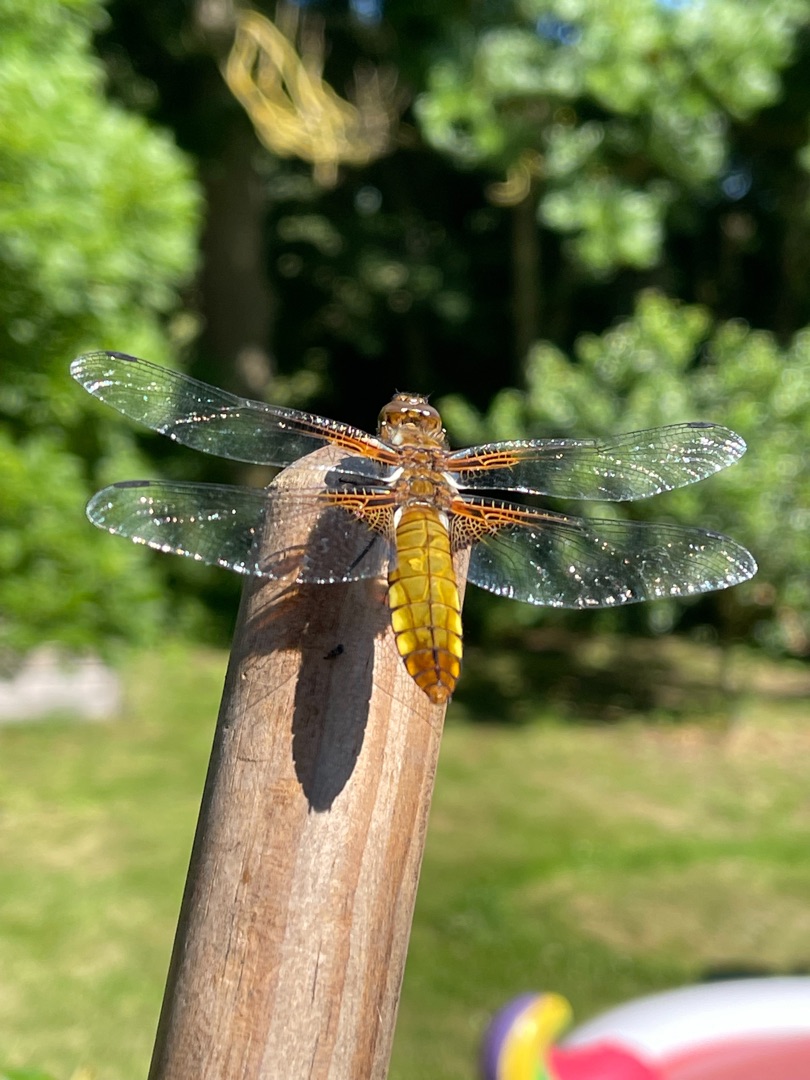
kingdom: Animalia
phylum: Arthropoda
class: Insecta
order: Odonata
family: Libellulidae
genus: Libellula
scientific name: Libellula depressa
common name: Blå libel
